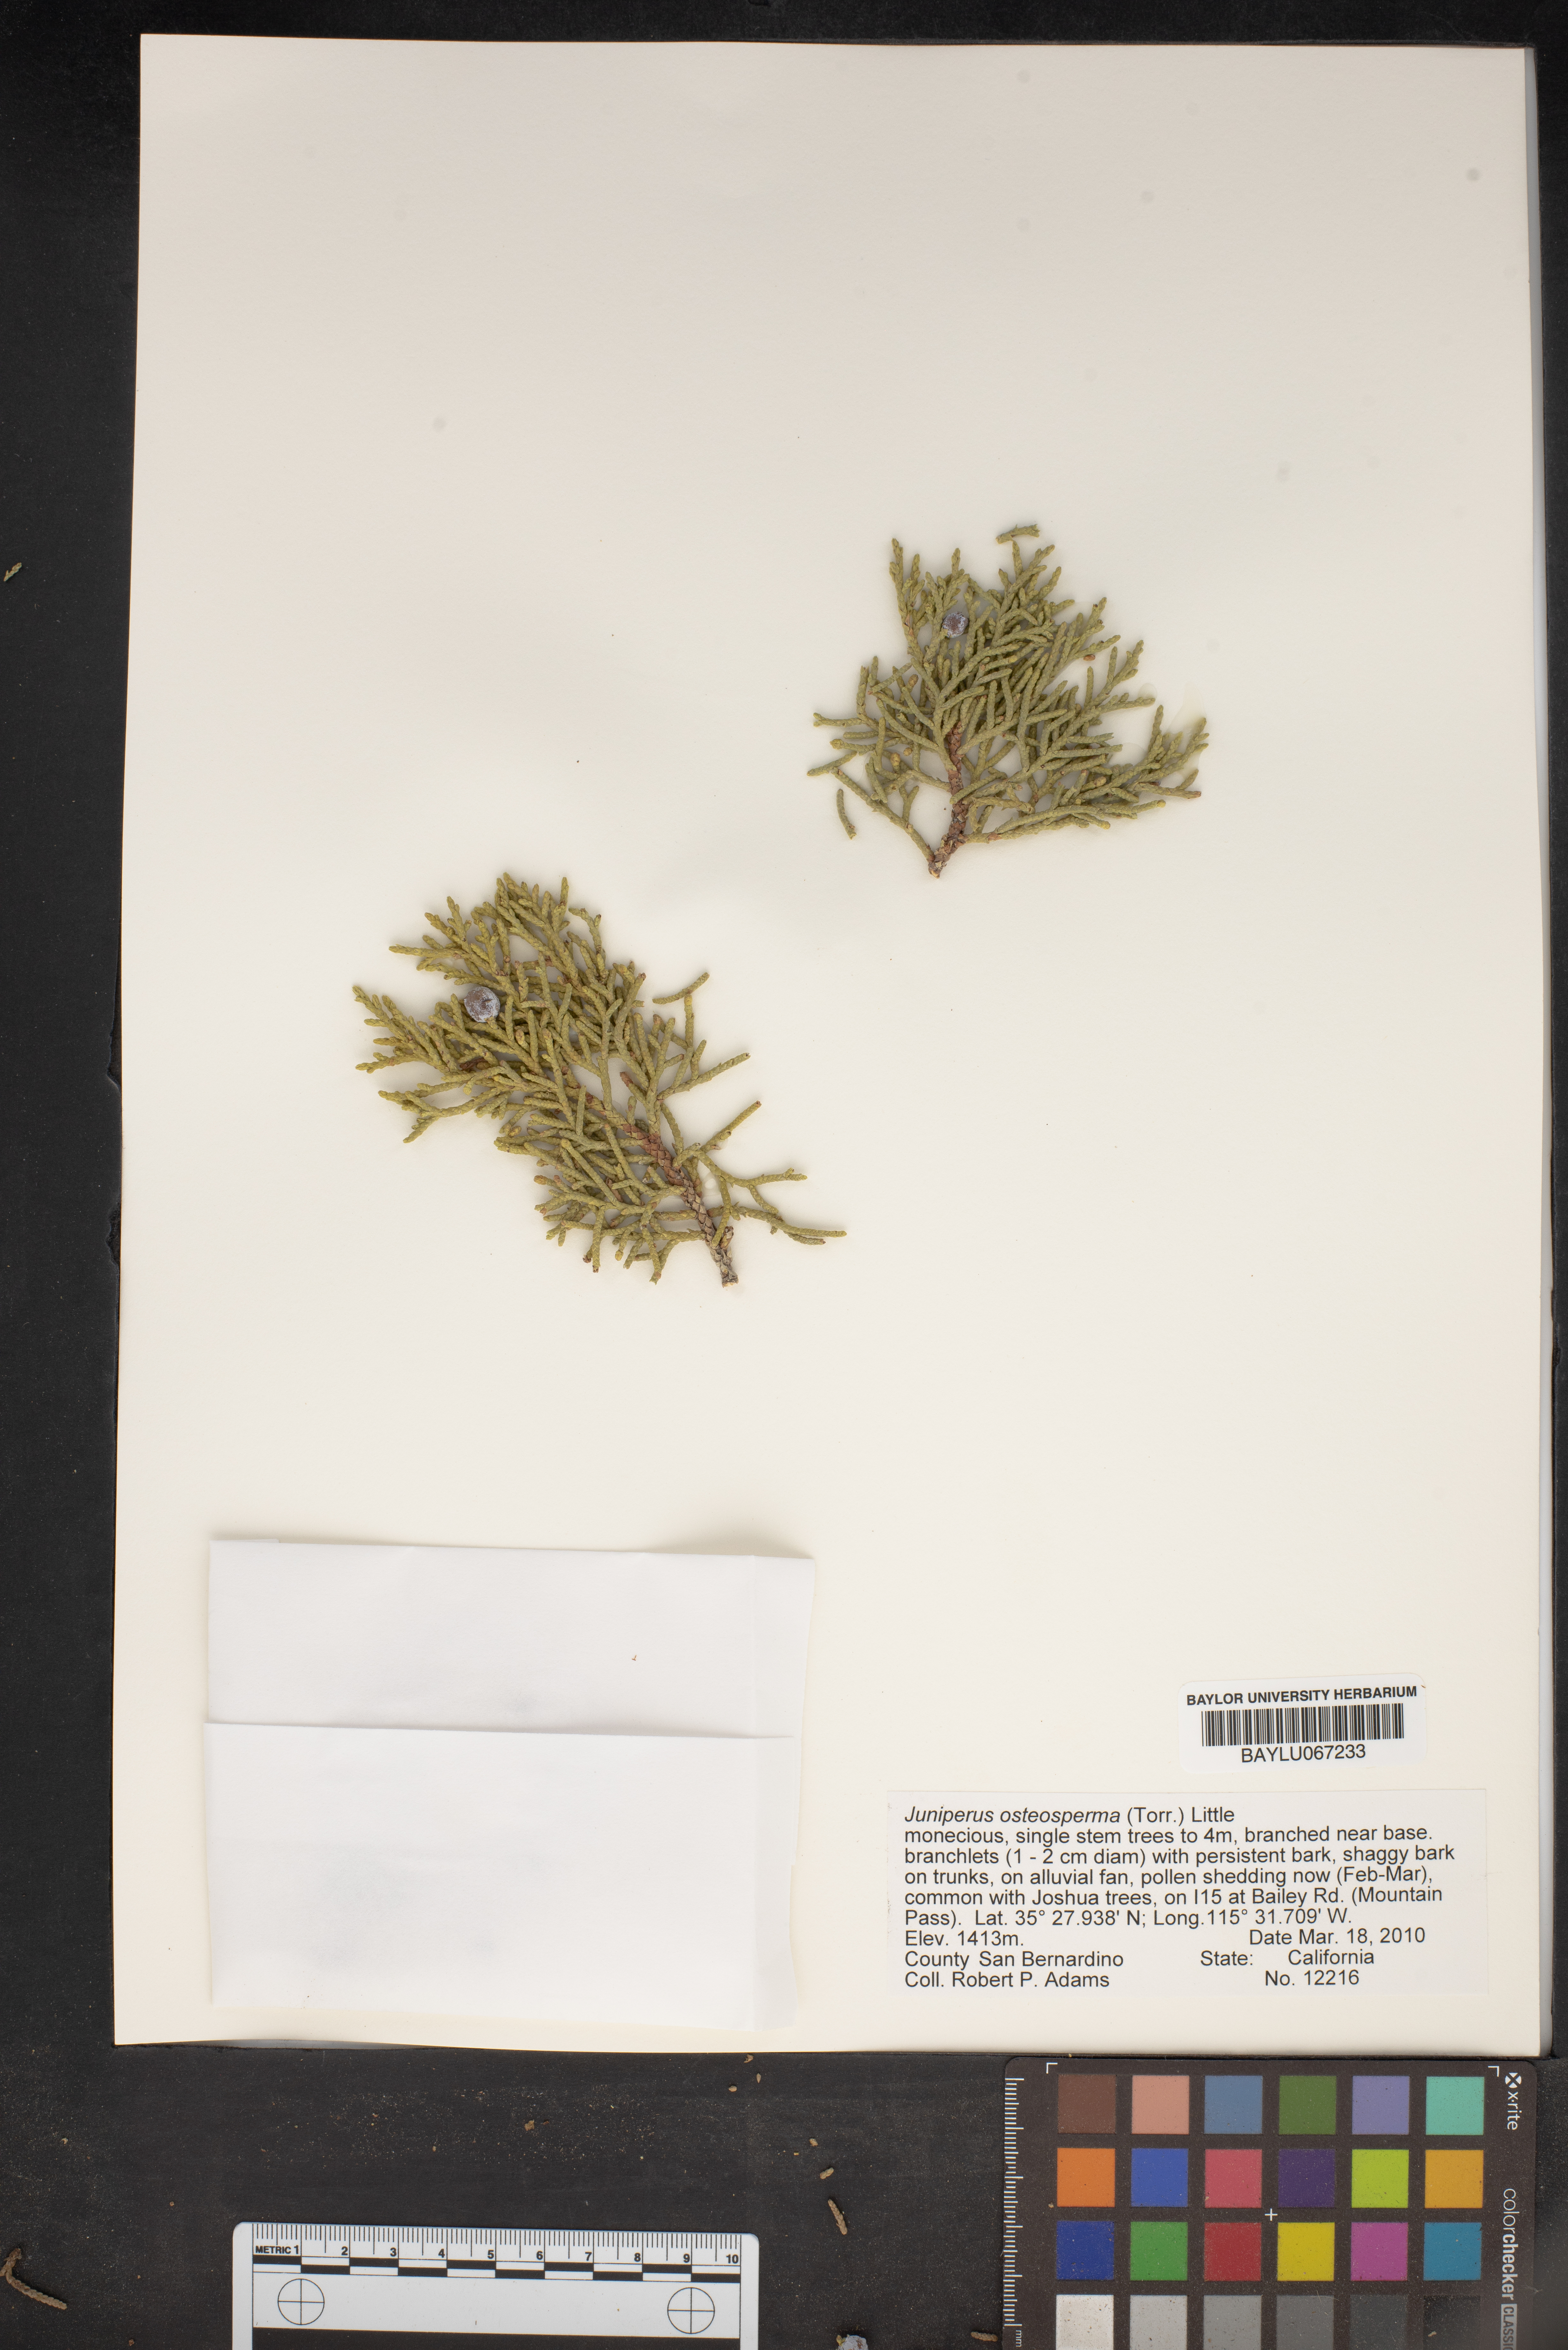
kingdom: Plantae
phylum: Tracheophyta
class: Pinopsida
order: Pinales
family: Cupressaceae
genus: Juniperus
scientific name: Juniperus osteosperma
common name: Utah juniper
